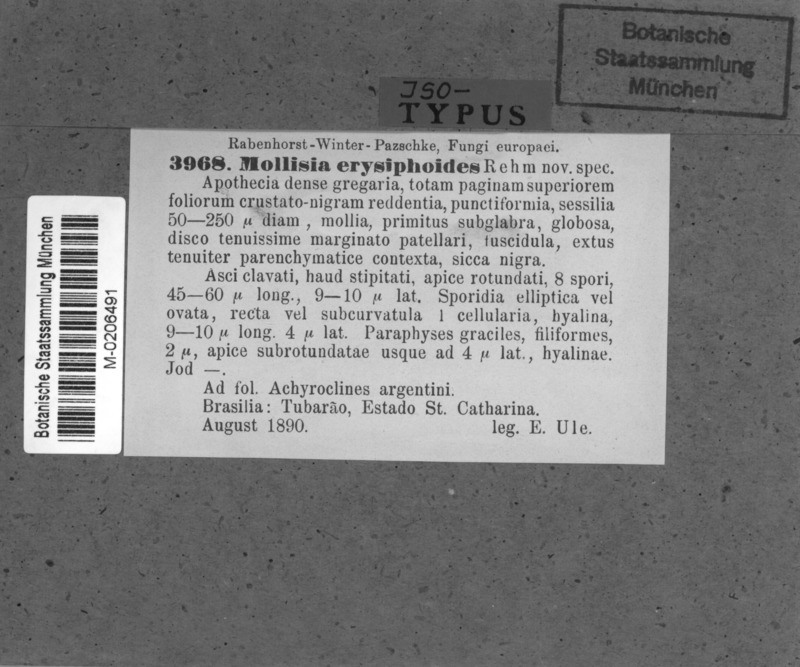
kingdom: Fungi
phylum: Ascomycota
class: Leotiomycetes
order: Helotiales
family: Mollisiaceae
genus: Mollisia
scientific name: Mollisia erysiphoides
